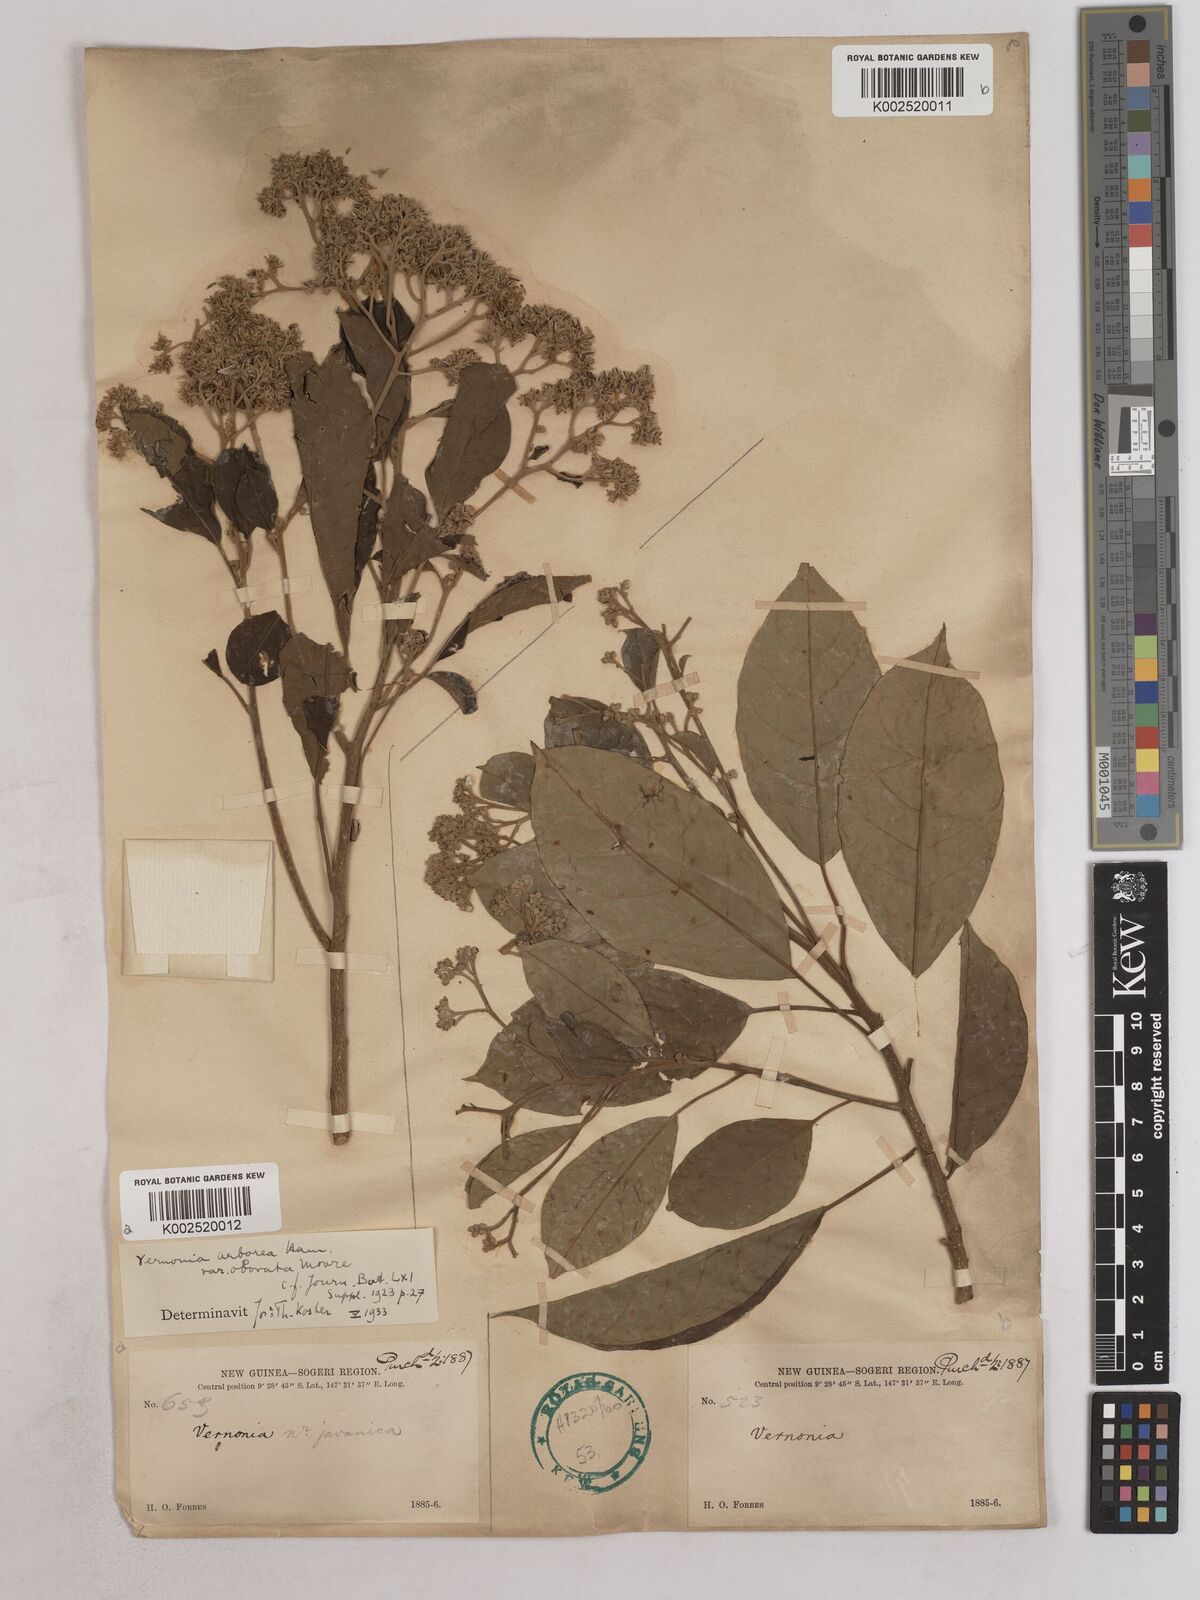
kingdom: Plantae
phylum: Tracheophyta
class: Magnoliopsida
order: Asterales
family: Asteraceae
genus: Strobocalyx
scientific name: Strobocalyx arborea
